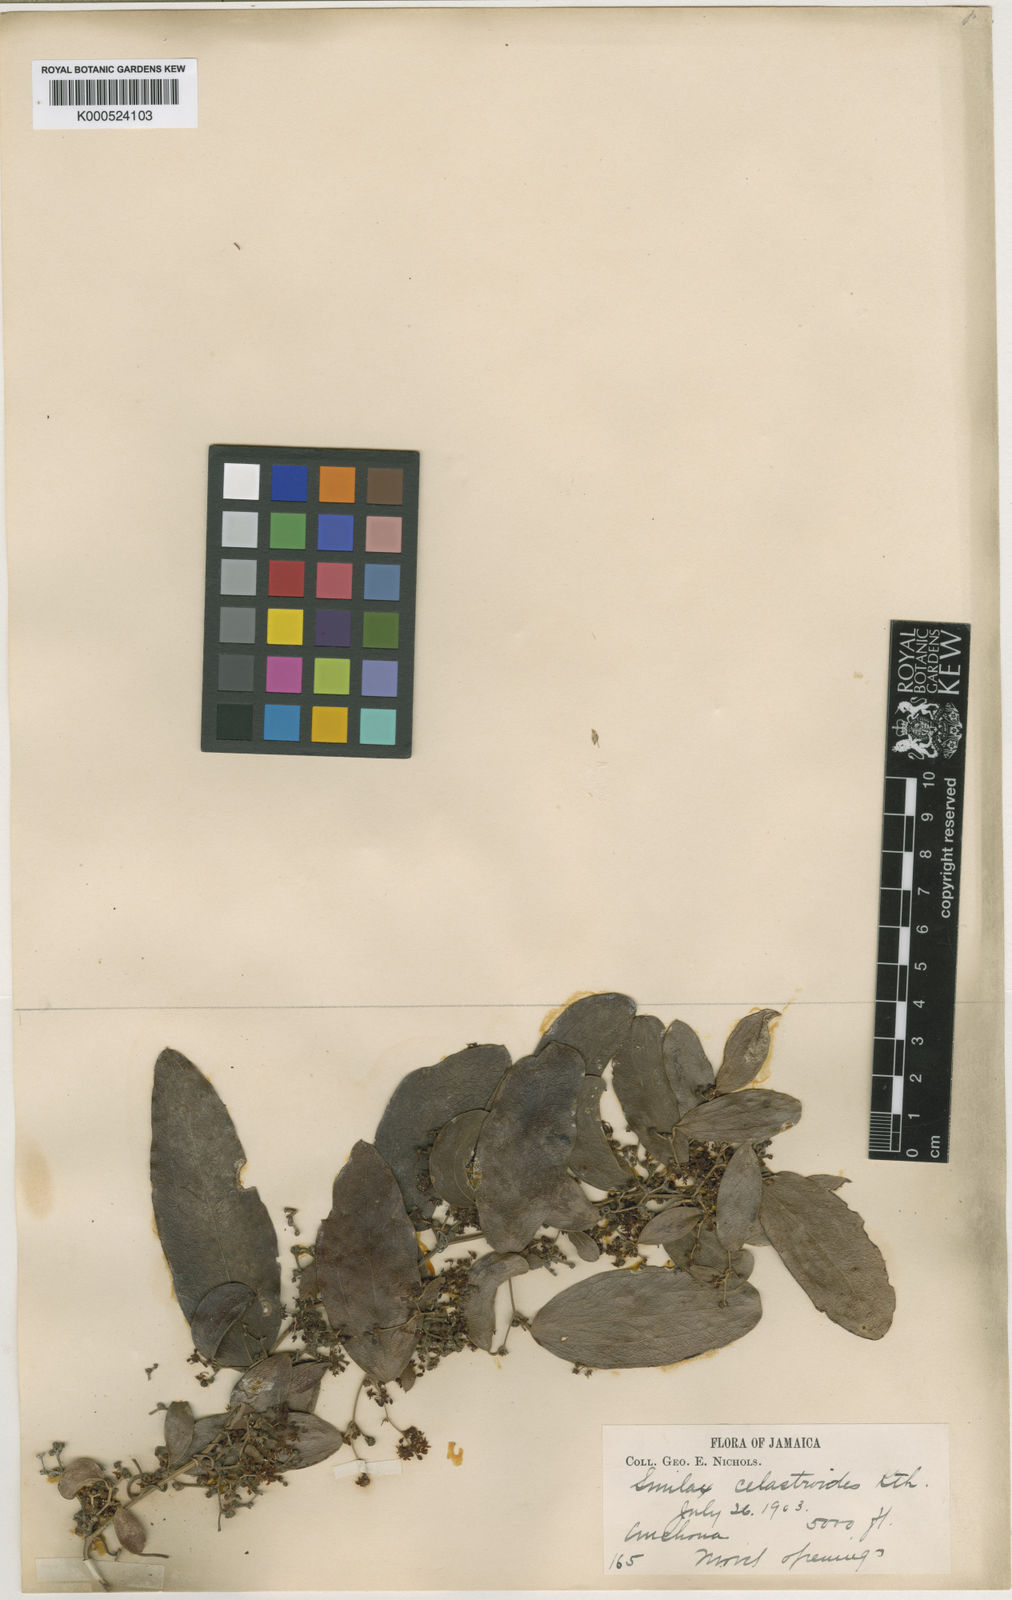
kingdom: Plantae
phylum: Tracheophyta
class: Liliopsida
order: Liliales
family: Smilacaceae
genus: Smilax
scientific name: Smilax domingensis
